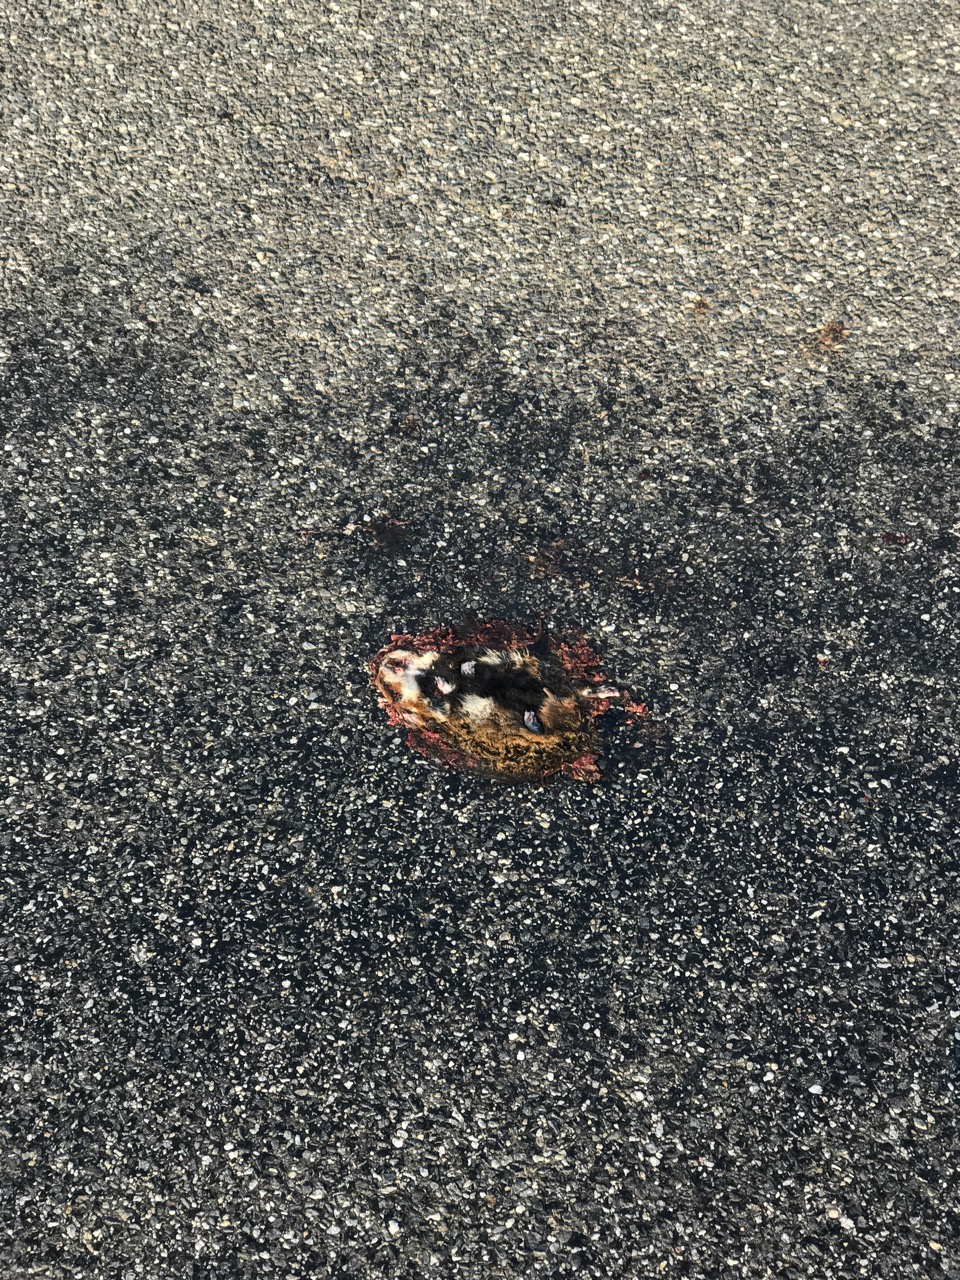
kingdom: Animalia
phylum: Chordata
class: Mammalia
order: Rodentia
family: Cricetidae
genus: Cricetus
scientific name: Cricetus cricetus
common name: Common hamster
